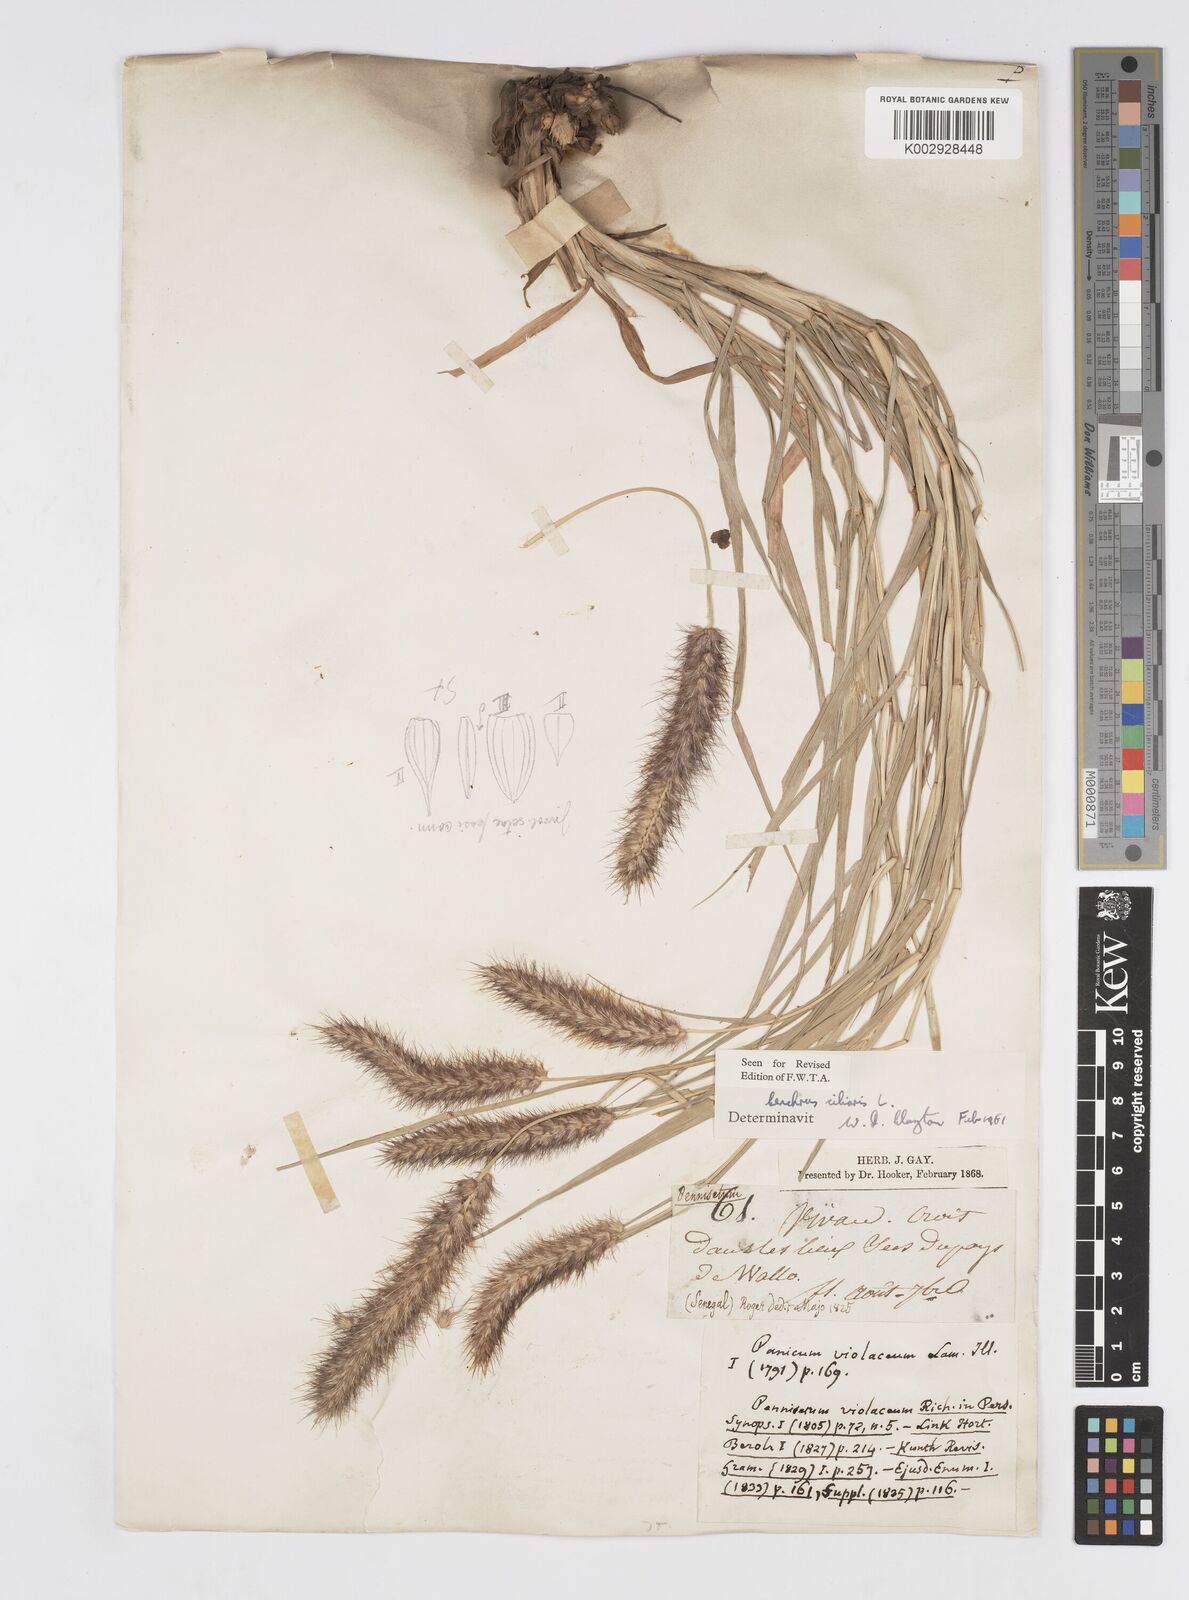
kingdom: Plantae
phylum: Tracheophyta
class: Liliopsida
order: Poales
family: Poaceae
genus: Cenchrus
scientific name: Cenchrus ciliaris
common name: Buffelgrass
